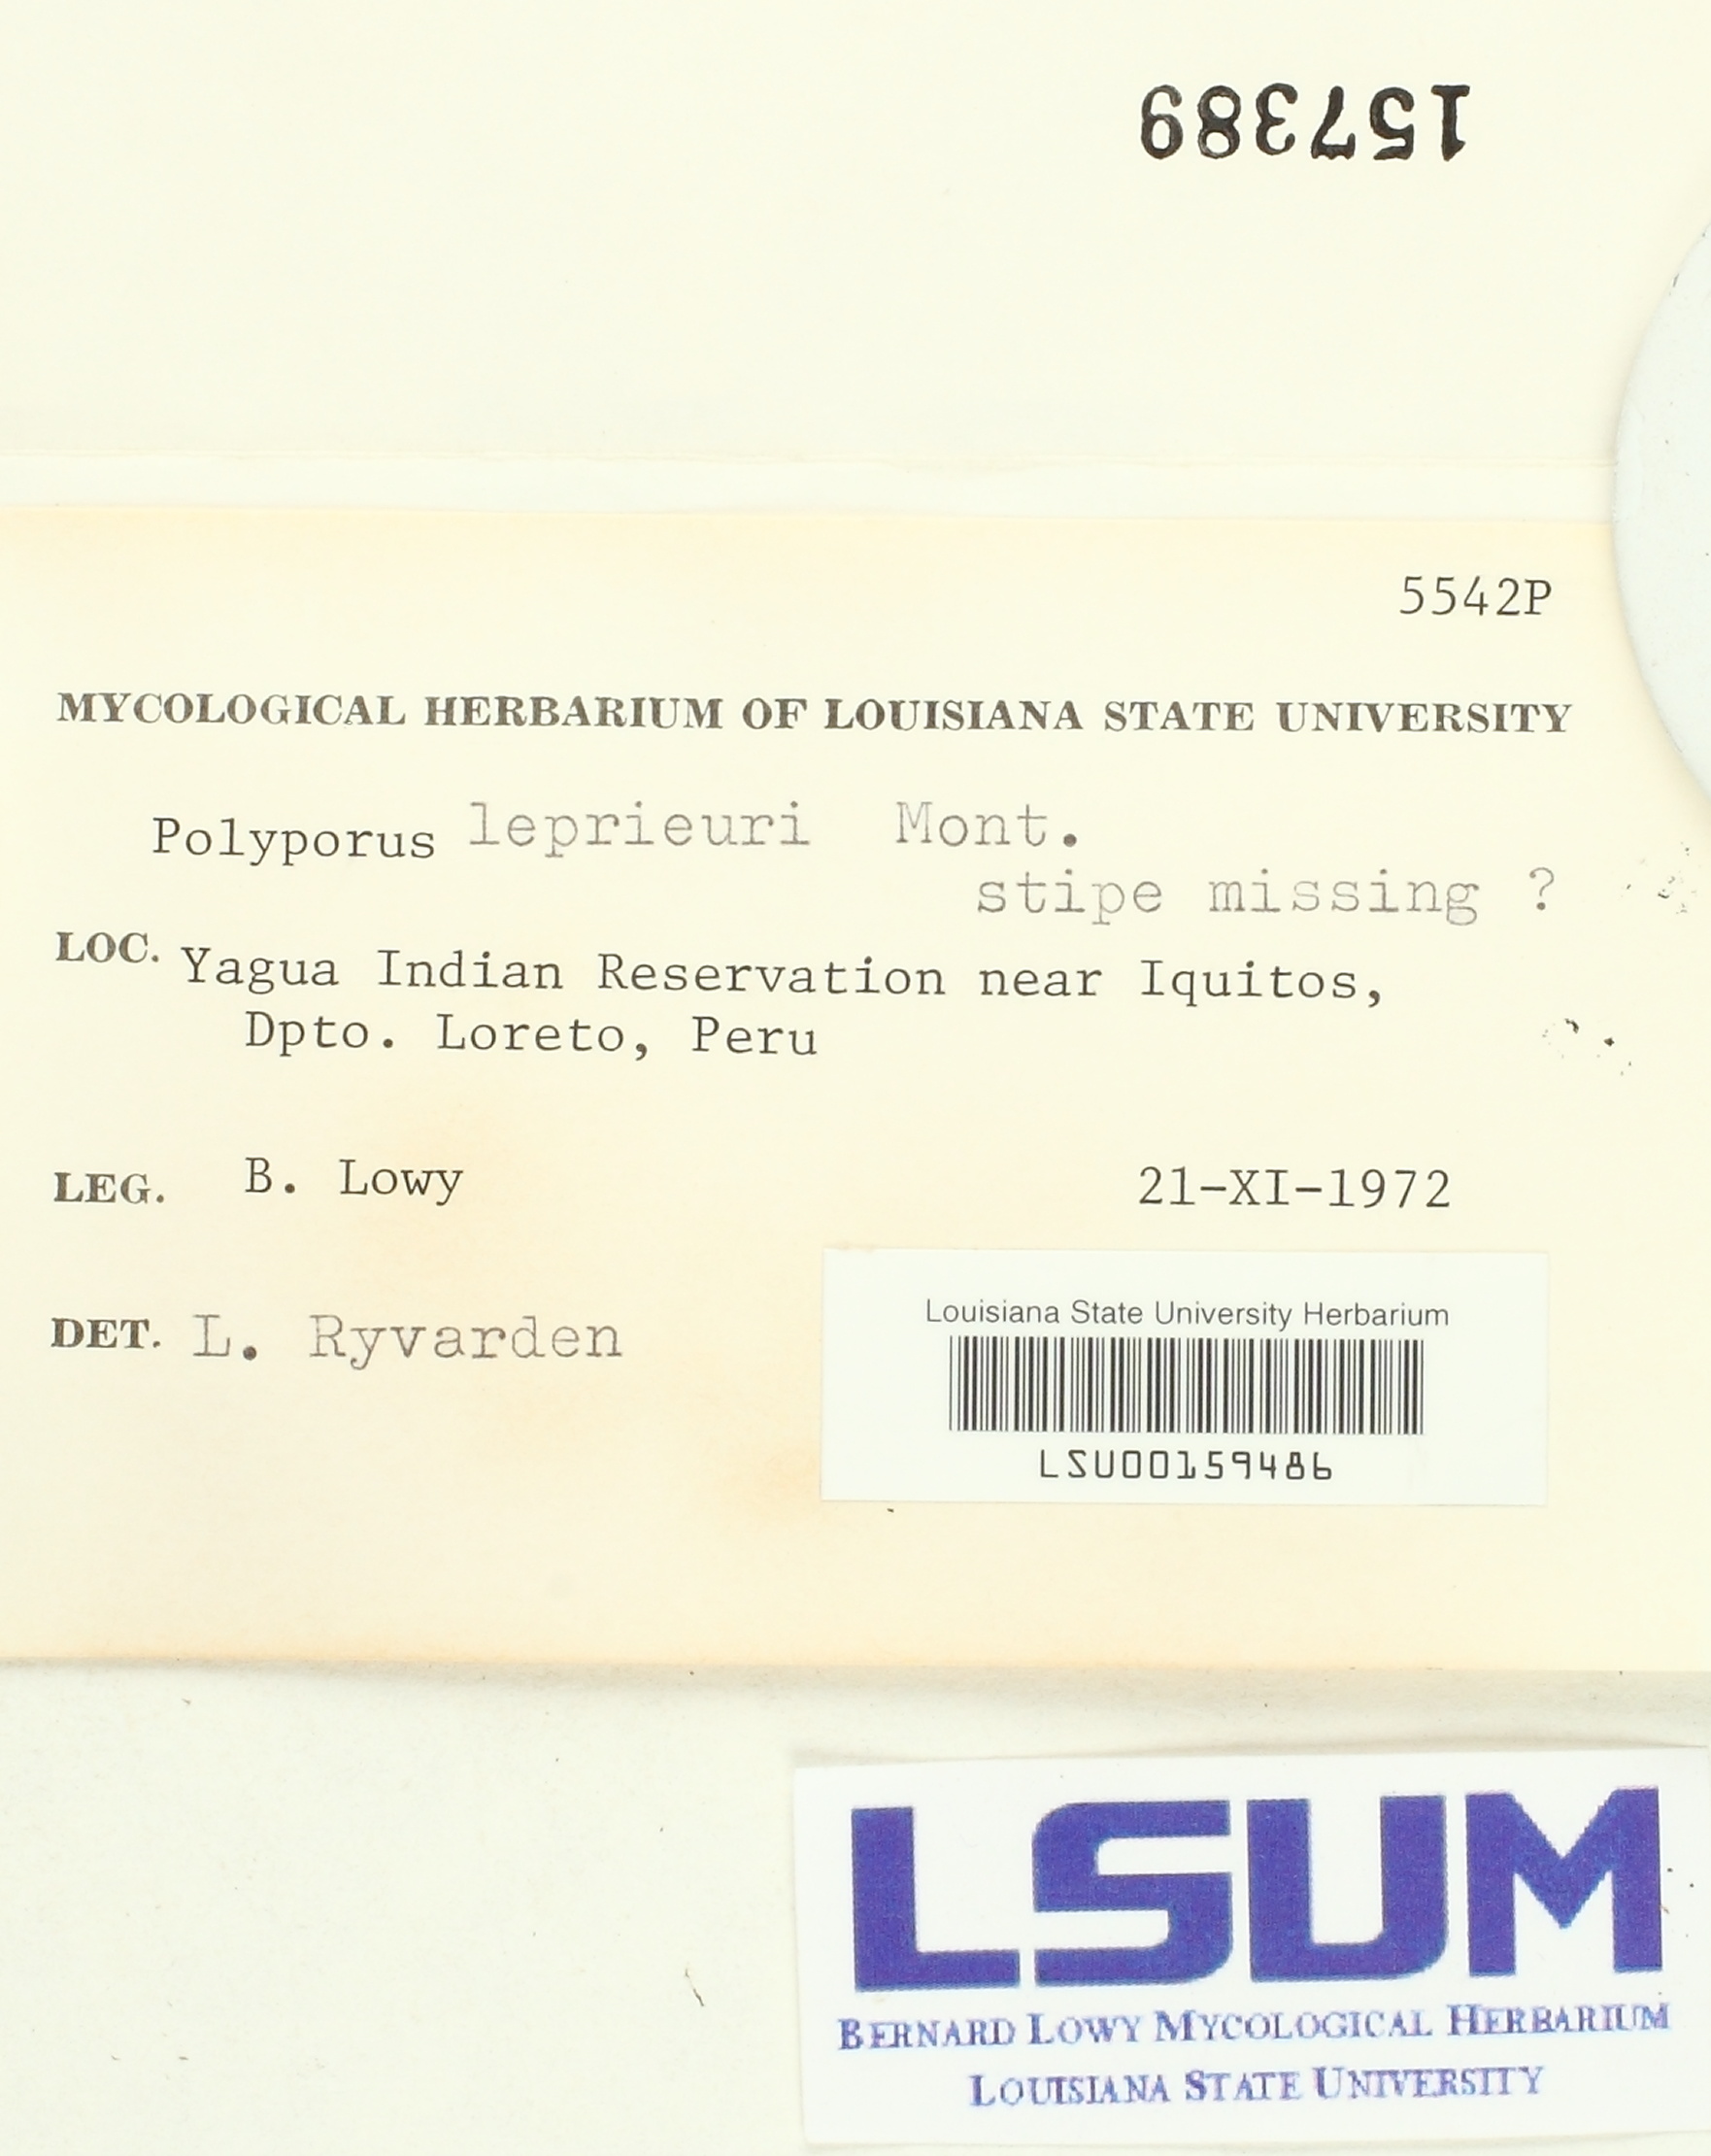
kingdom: Fungi
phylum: Basidiomycota
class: Agaricomycetes
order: Polyporales
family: Polyporaceae
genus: Polyporus
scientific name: Polyporus leprieurii
